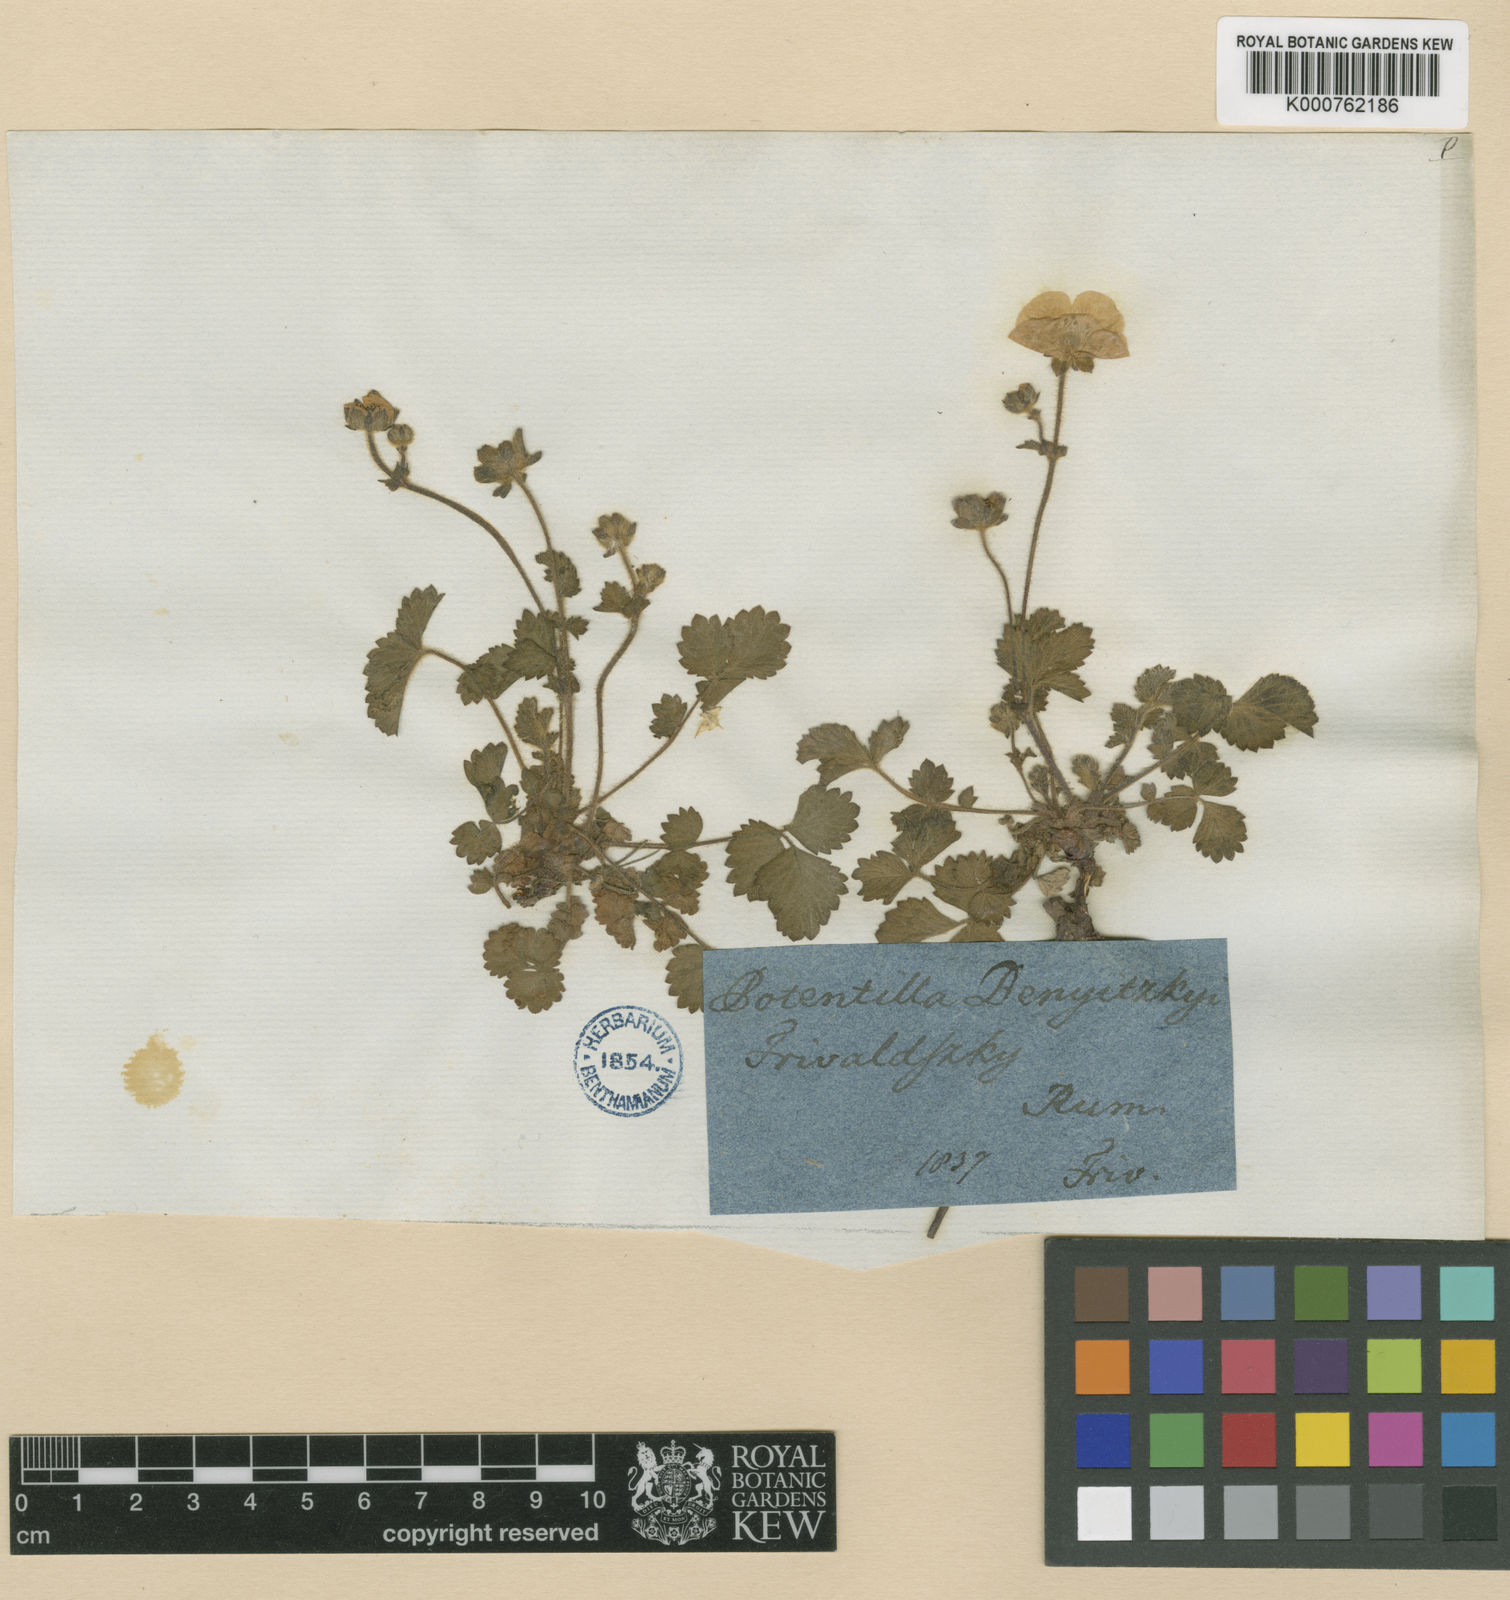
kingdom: Plantae
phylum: Tracheophyta
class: Magnoliopsida
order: Rosales
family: Rosaceae
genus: Drymocallis
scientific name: Drymocallis rupestris
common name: Rock cinquefoil
